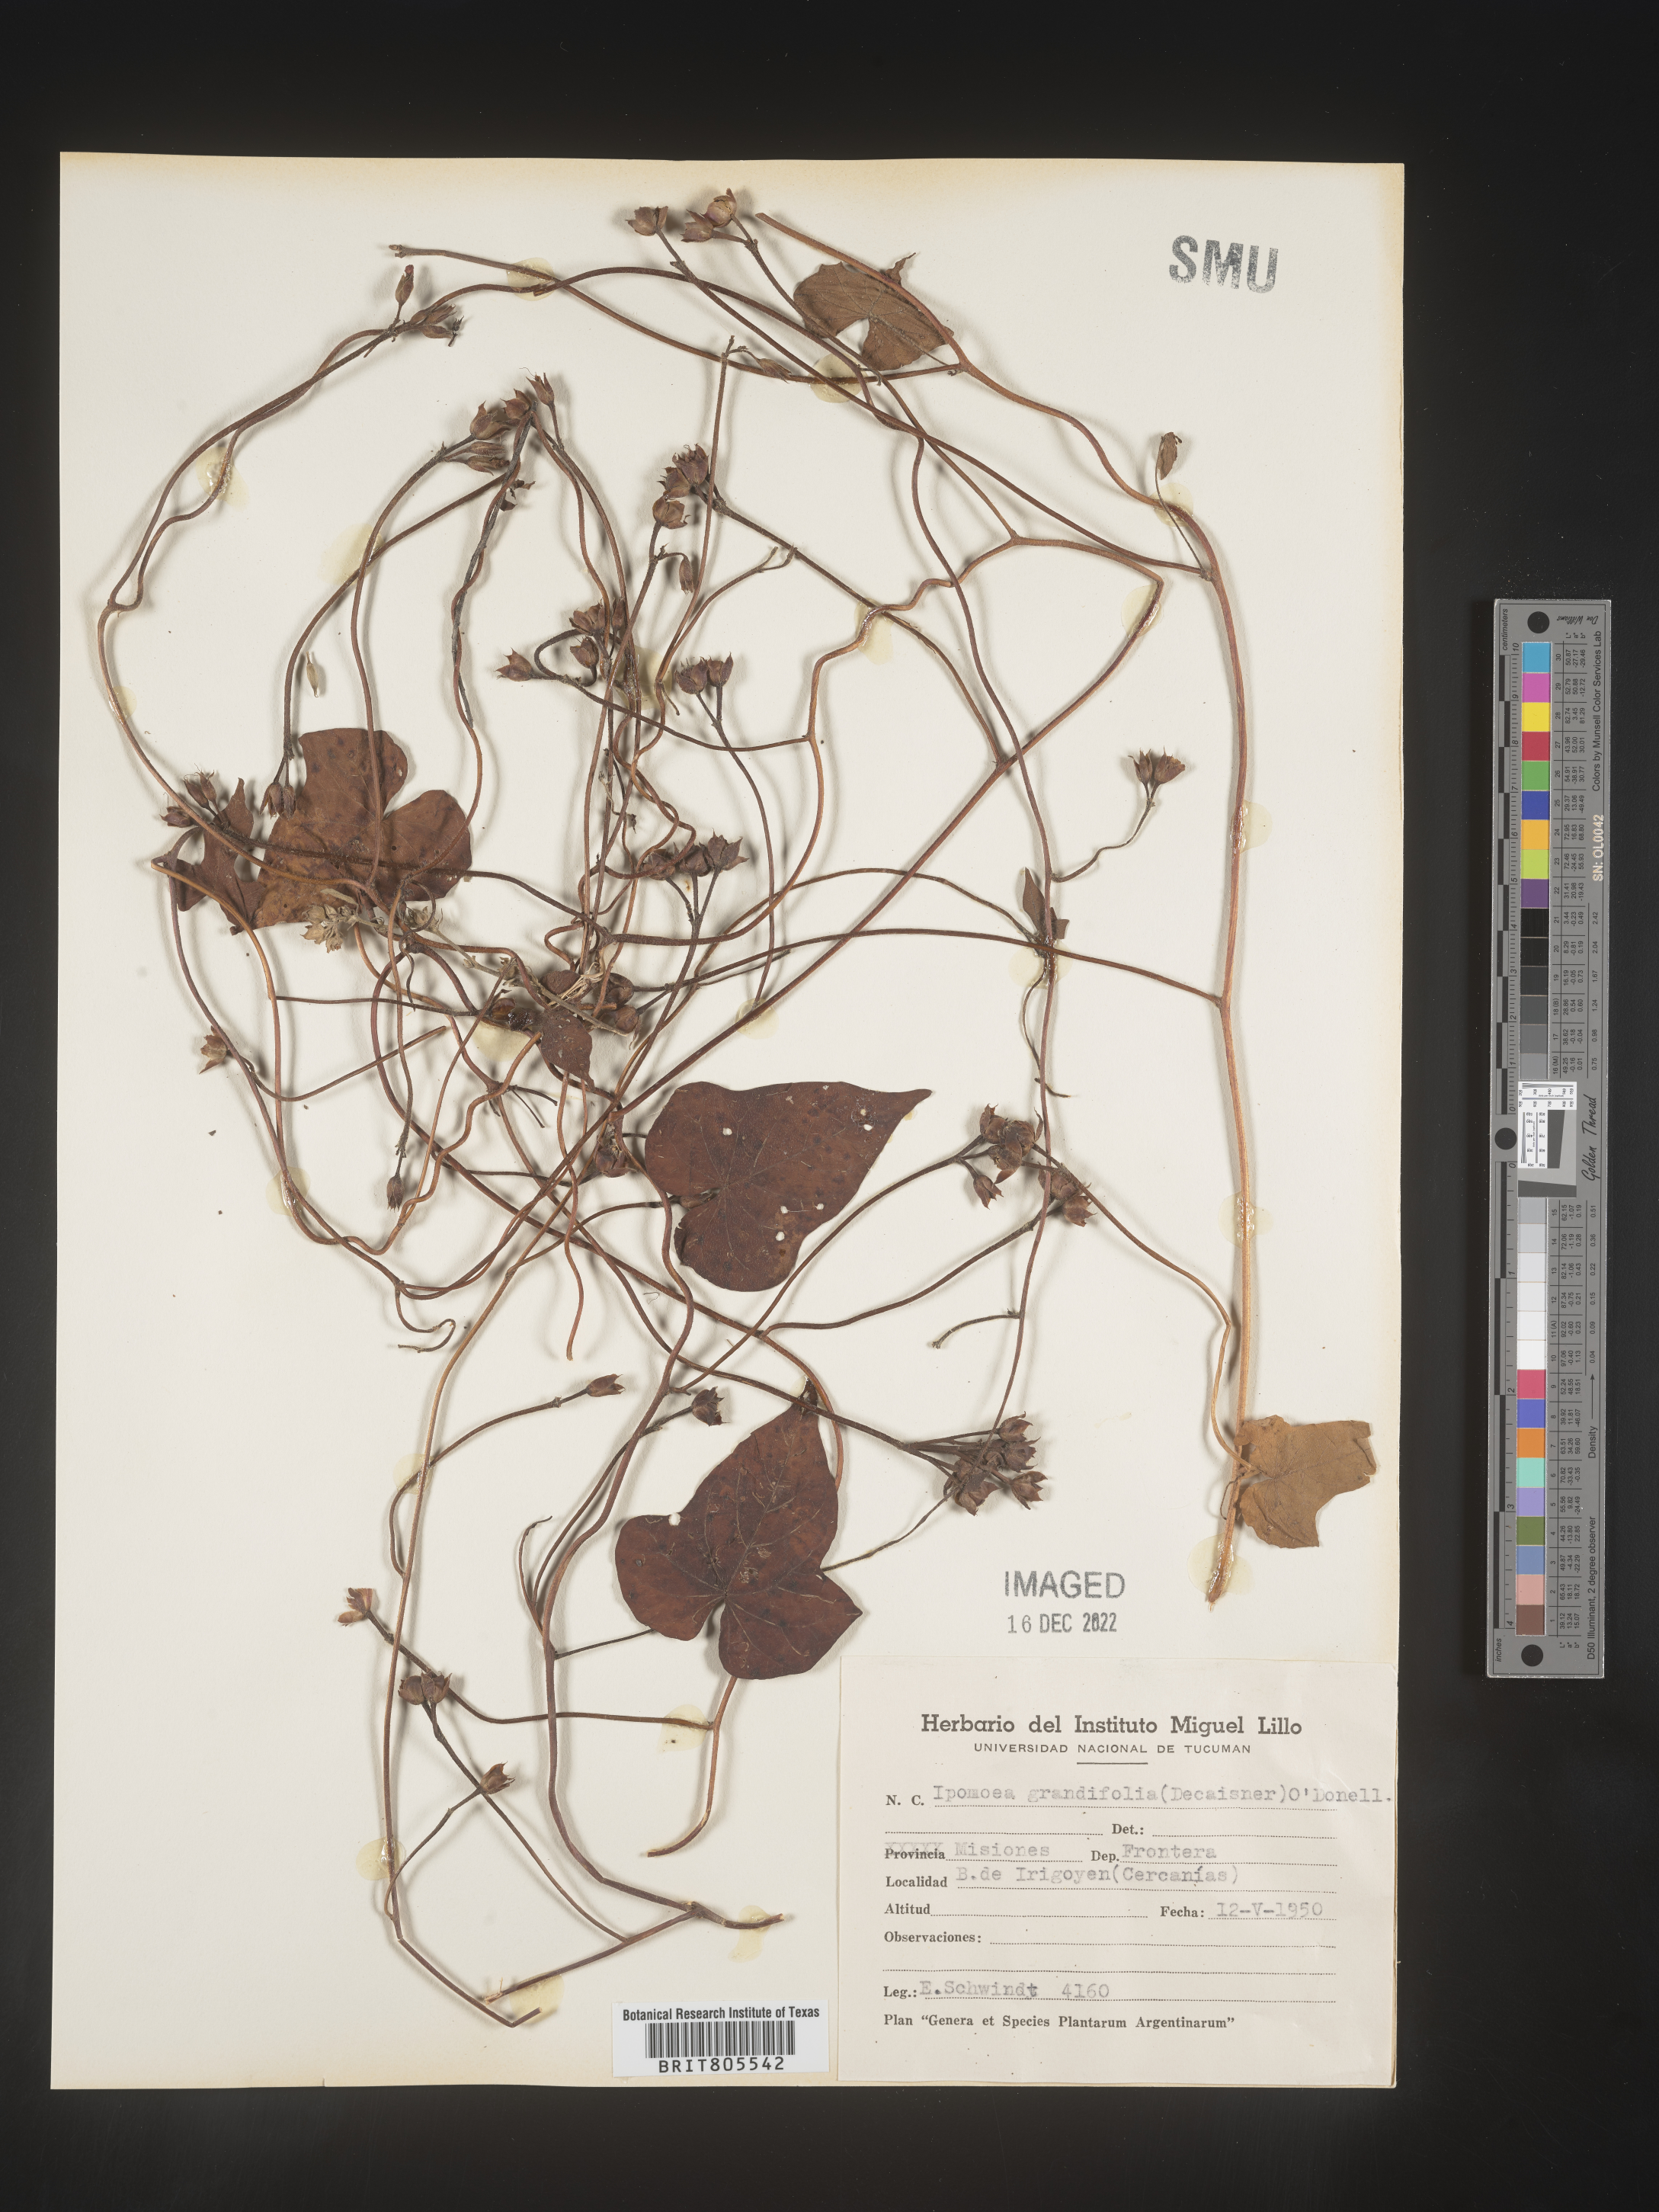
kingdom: Plantae
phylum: Tracheophyta
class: Magnoliopsida
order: Solanales
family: Convolvulaceae
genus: Ipomoea
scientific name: Ipomoea
